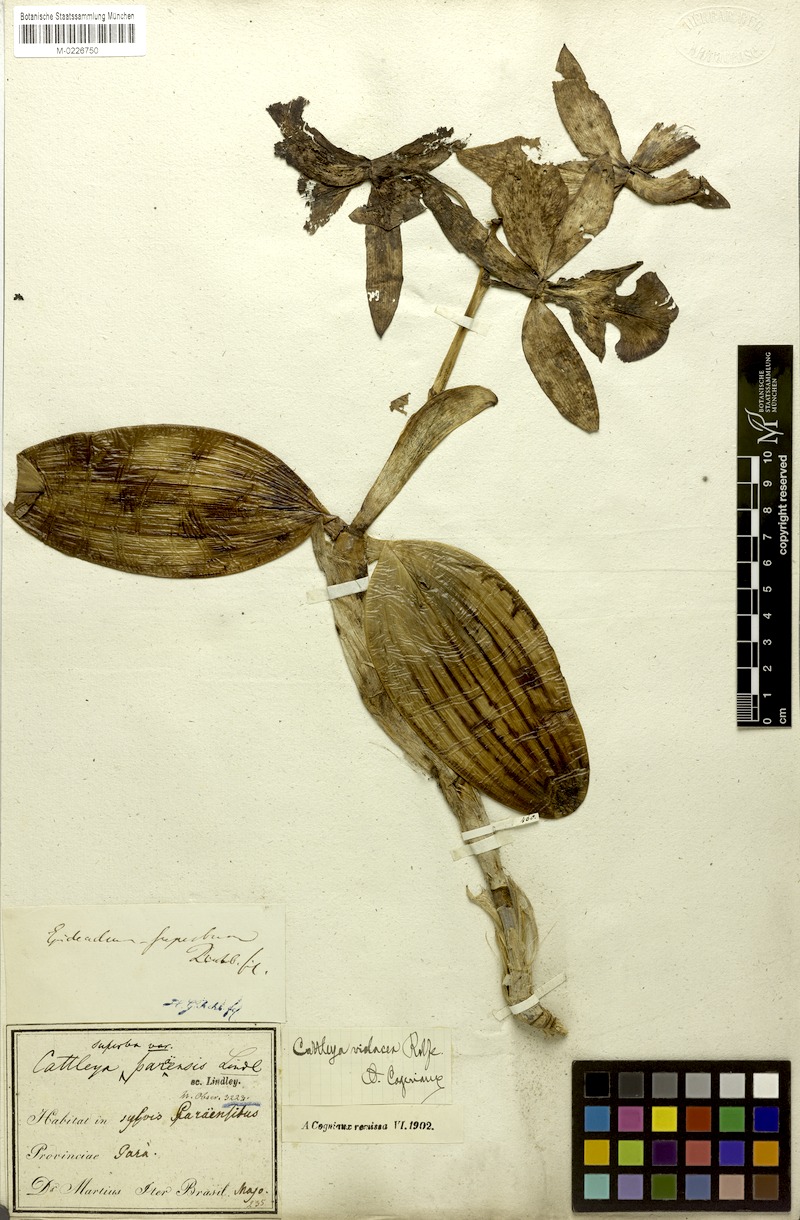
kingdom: Plantae
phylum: Tracheophyta
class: Liliopsida
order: Asparagales
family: Orchidaceae
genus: Cattleya
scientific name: Cattleya violacea
